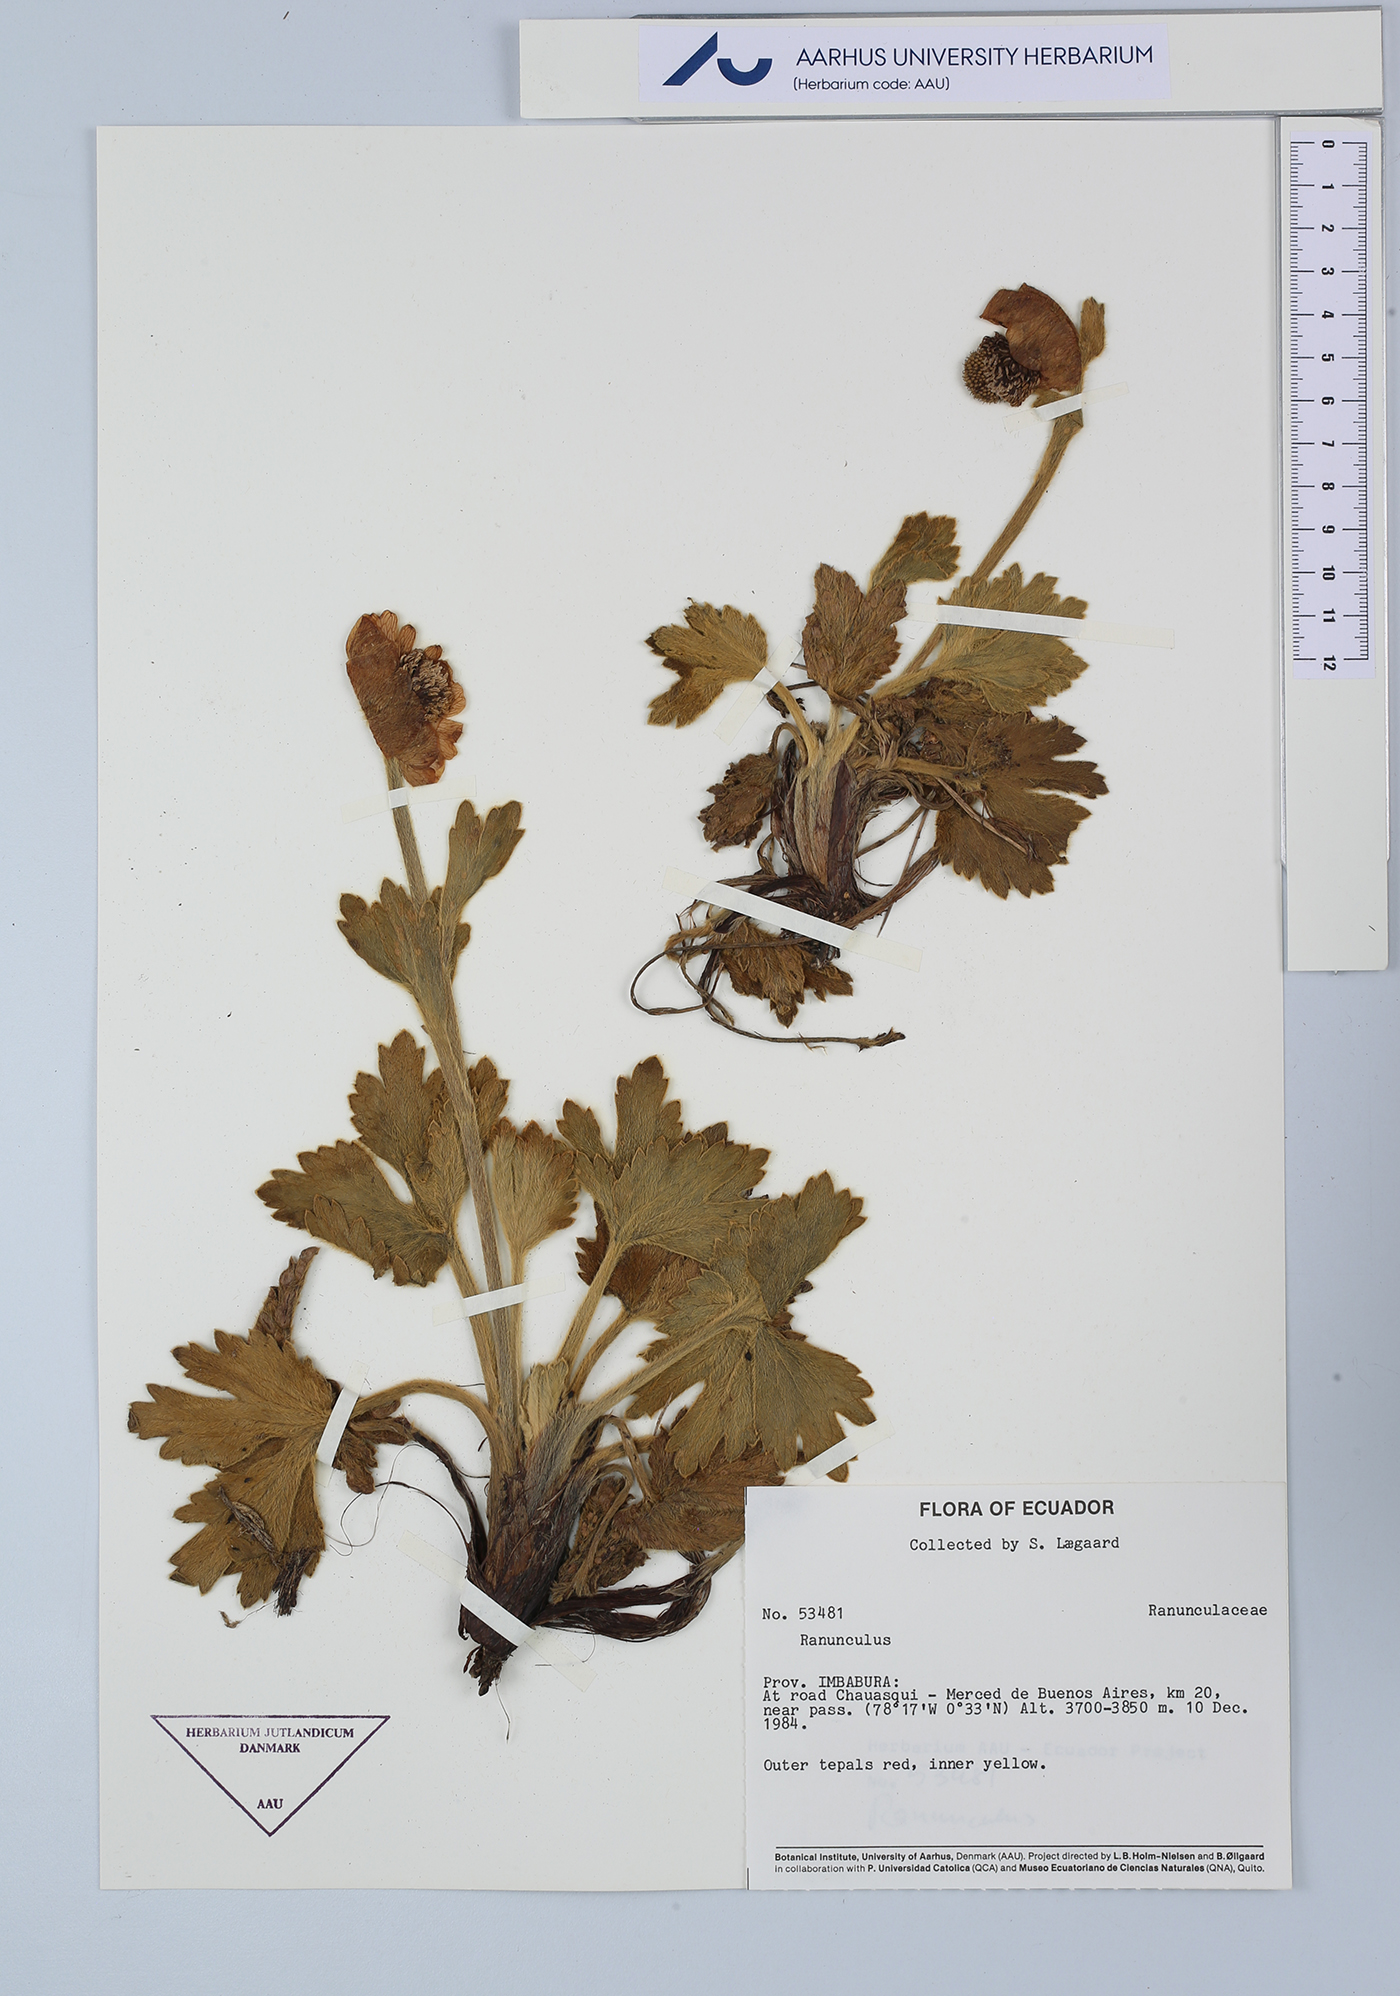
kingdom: Plantae
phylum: Tracheophyta
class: Magnoliopsida
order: Ranunculales
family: Ranunculaceae
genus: Ranunculus
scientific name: Ranunculus
